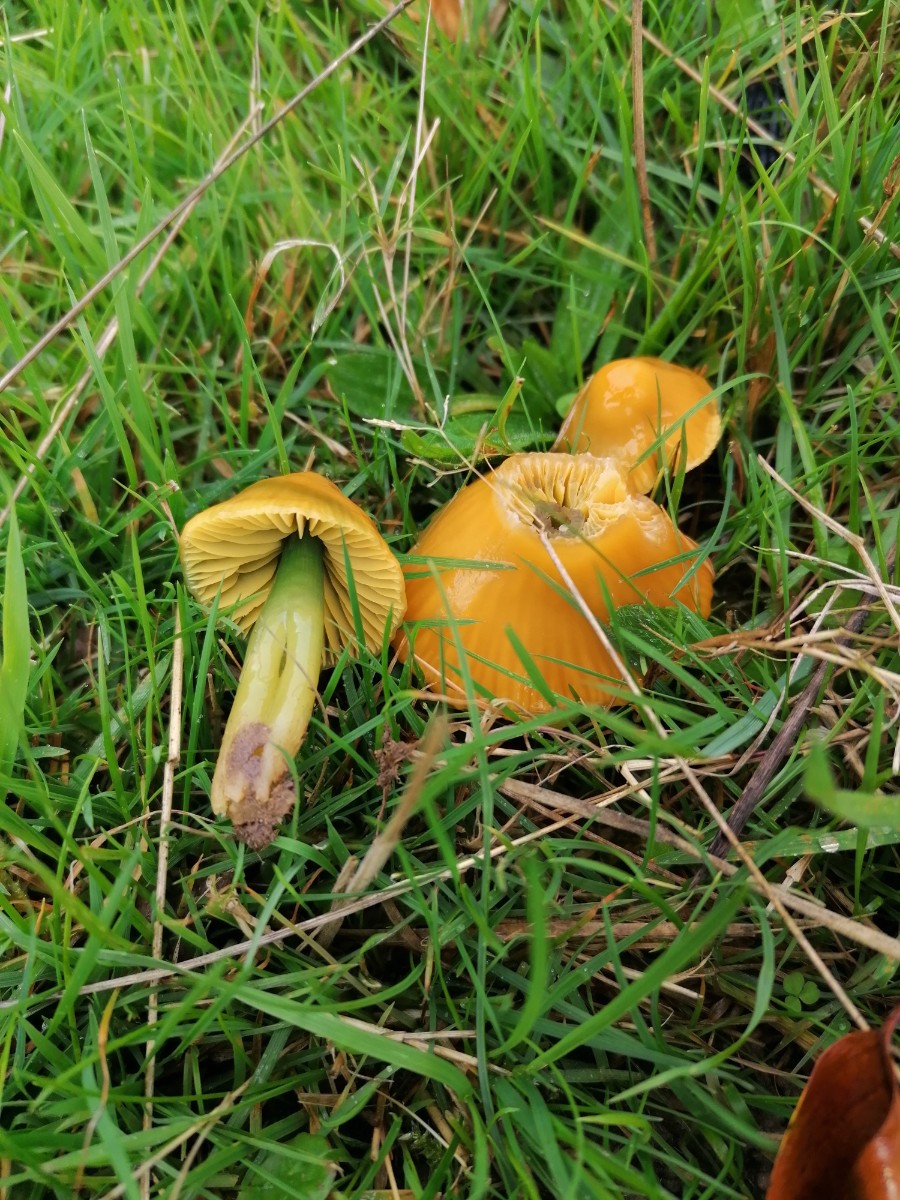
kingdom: Fungi
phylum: Basidiomycota
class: Agaricomycetes
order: Agaricales
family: Hygrophoraceae
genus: Gliophorus
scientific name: Gliophorus psittacinus
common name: papegøje-vokshat
